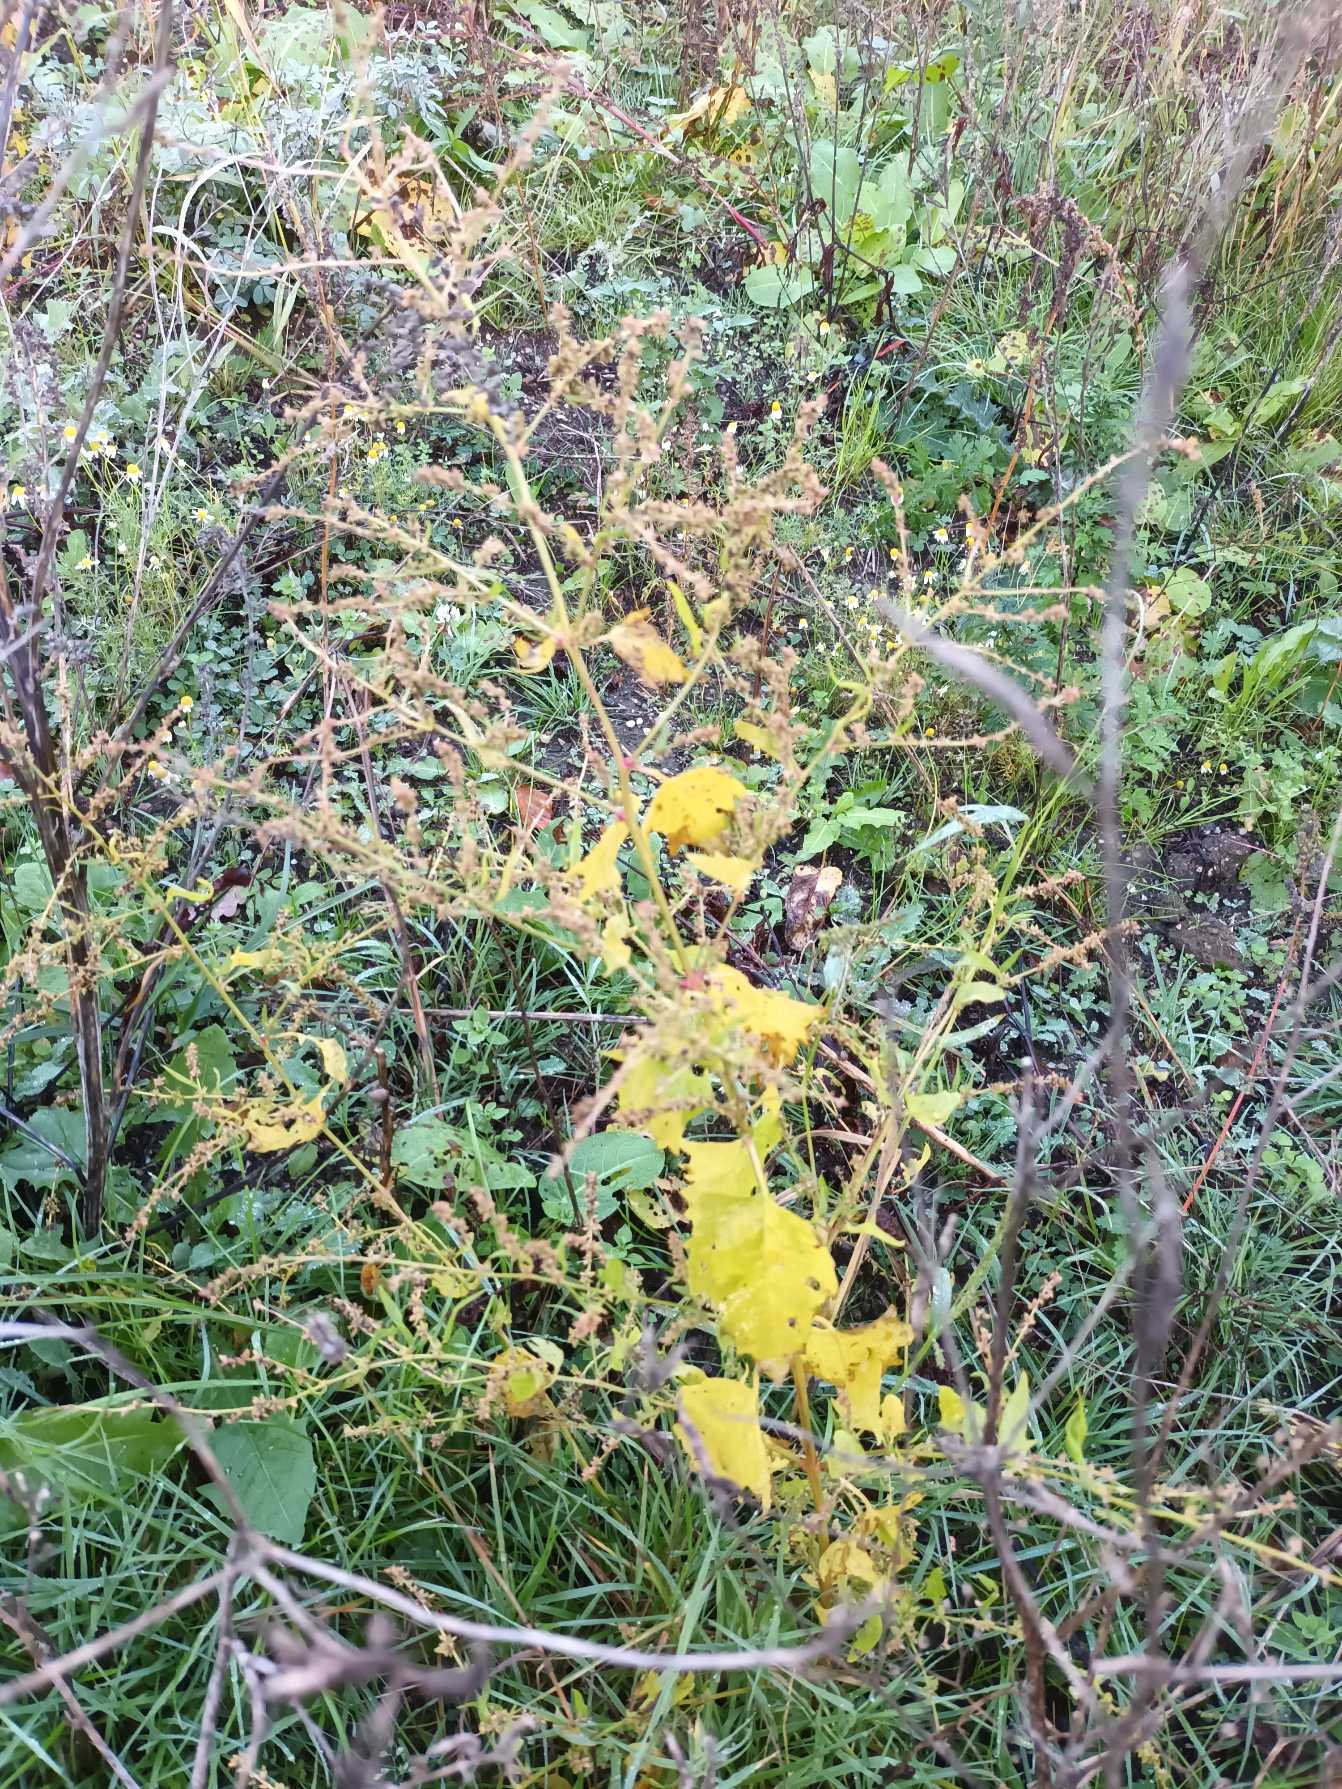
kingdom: Plantae
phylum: Tracheophyta
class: Magnoliopsida
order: Caryophyllales
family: Amaranthaceae
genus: Atriplex
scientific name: Atriplex prostrata
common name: Spyd-mælde
